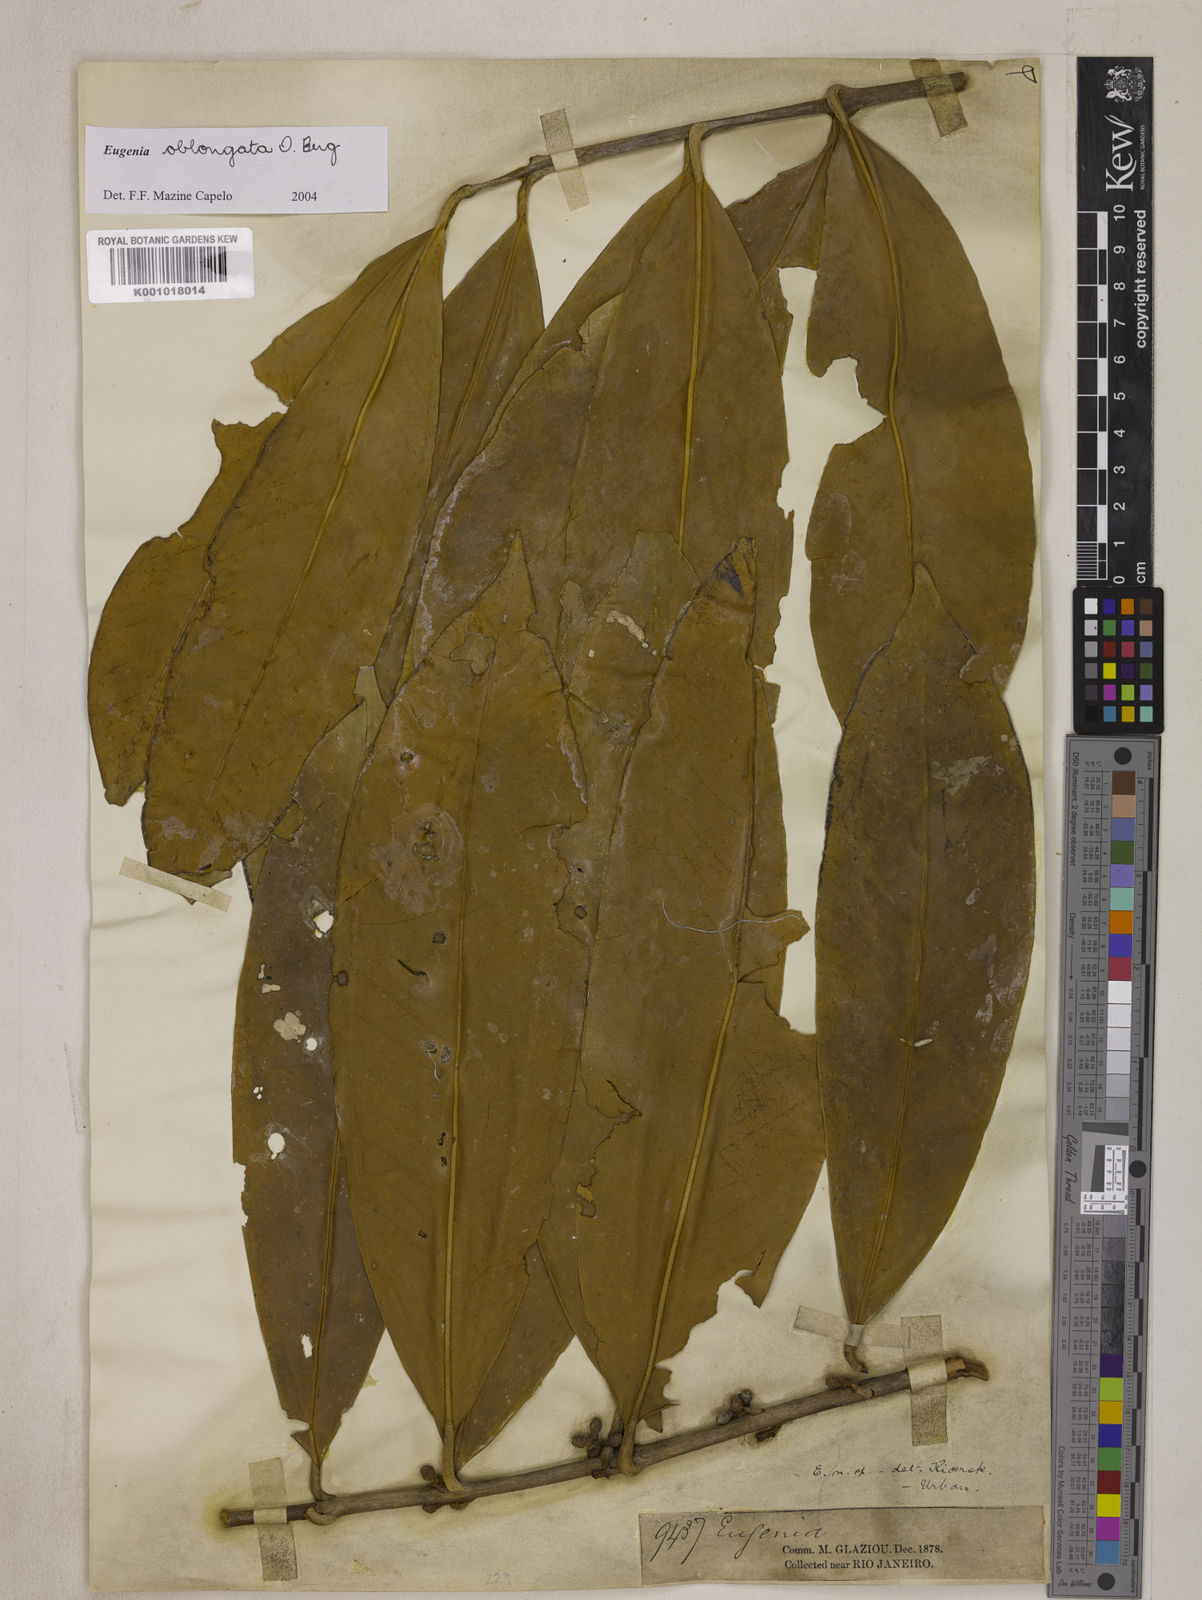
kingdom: Plantae
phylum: Tracheophyta
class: Magnoliopsida
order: Myrtales
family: Myrtaceae
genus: Eugenia
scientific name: Eugenia oblongata
